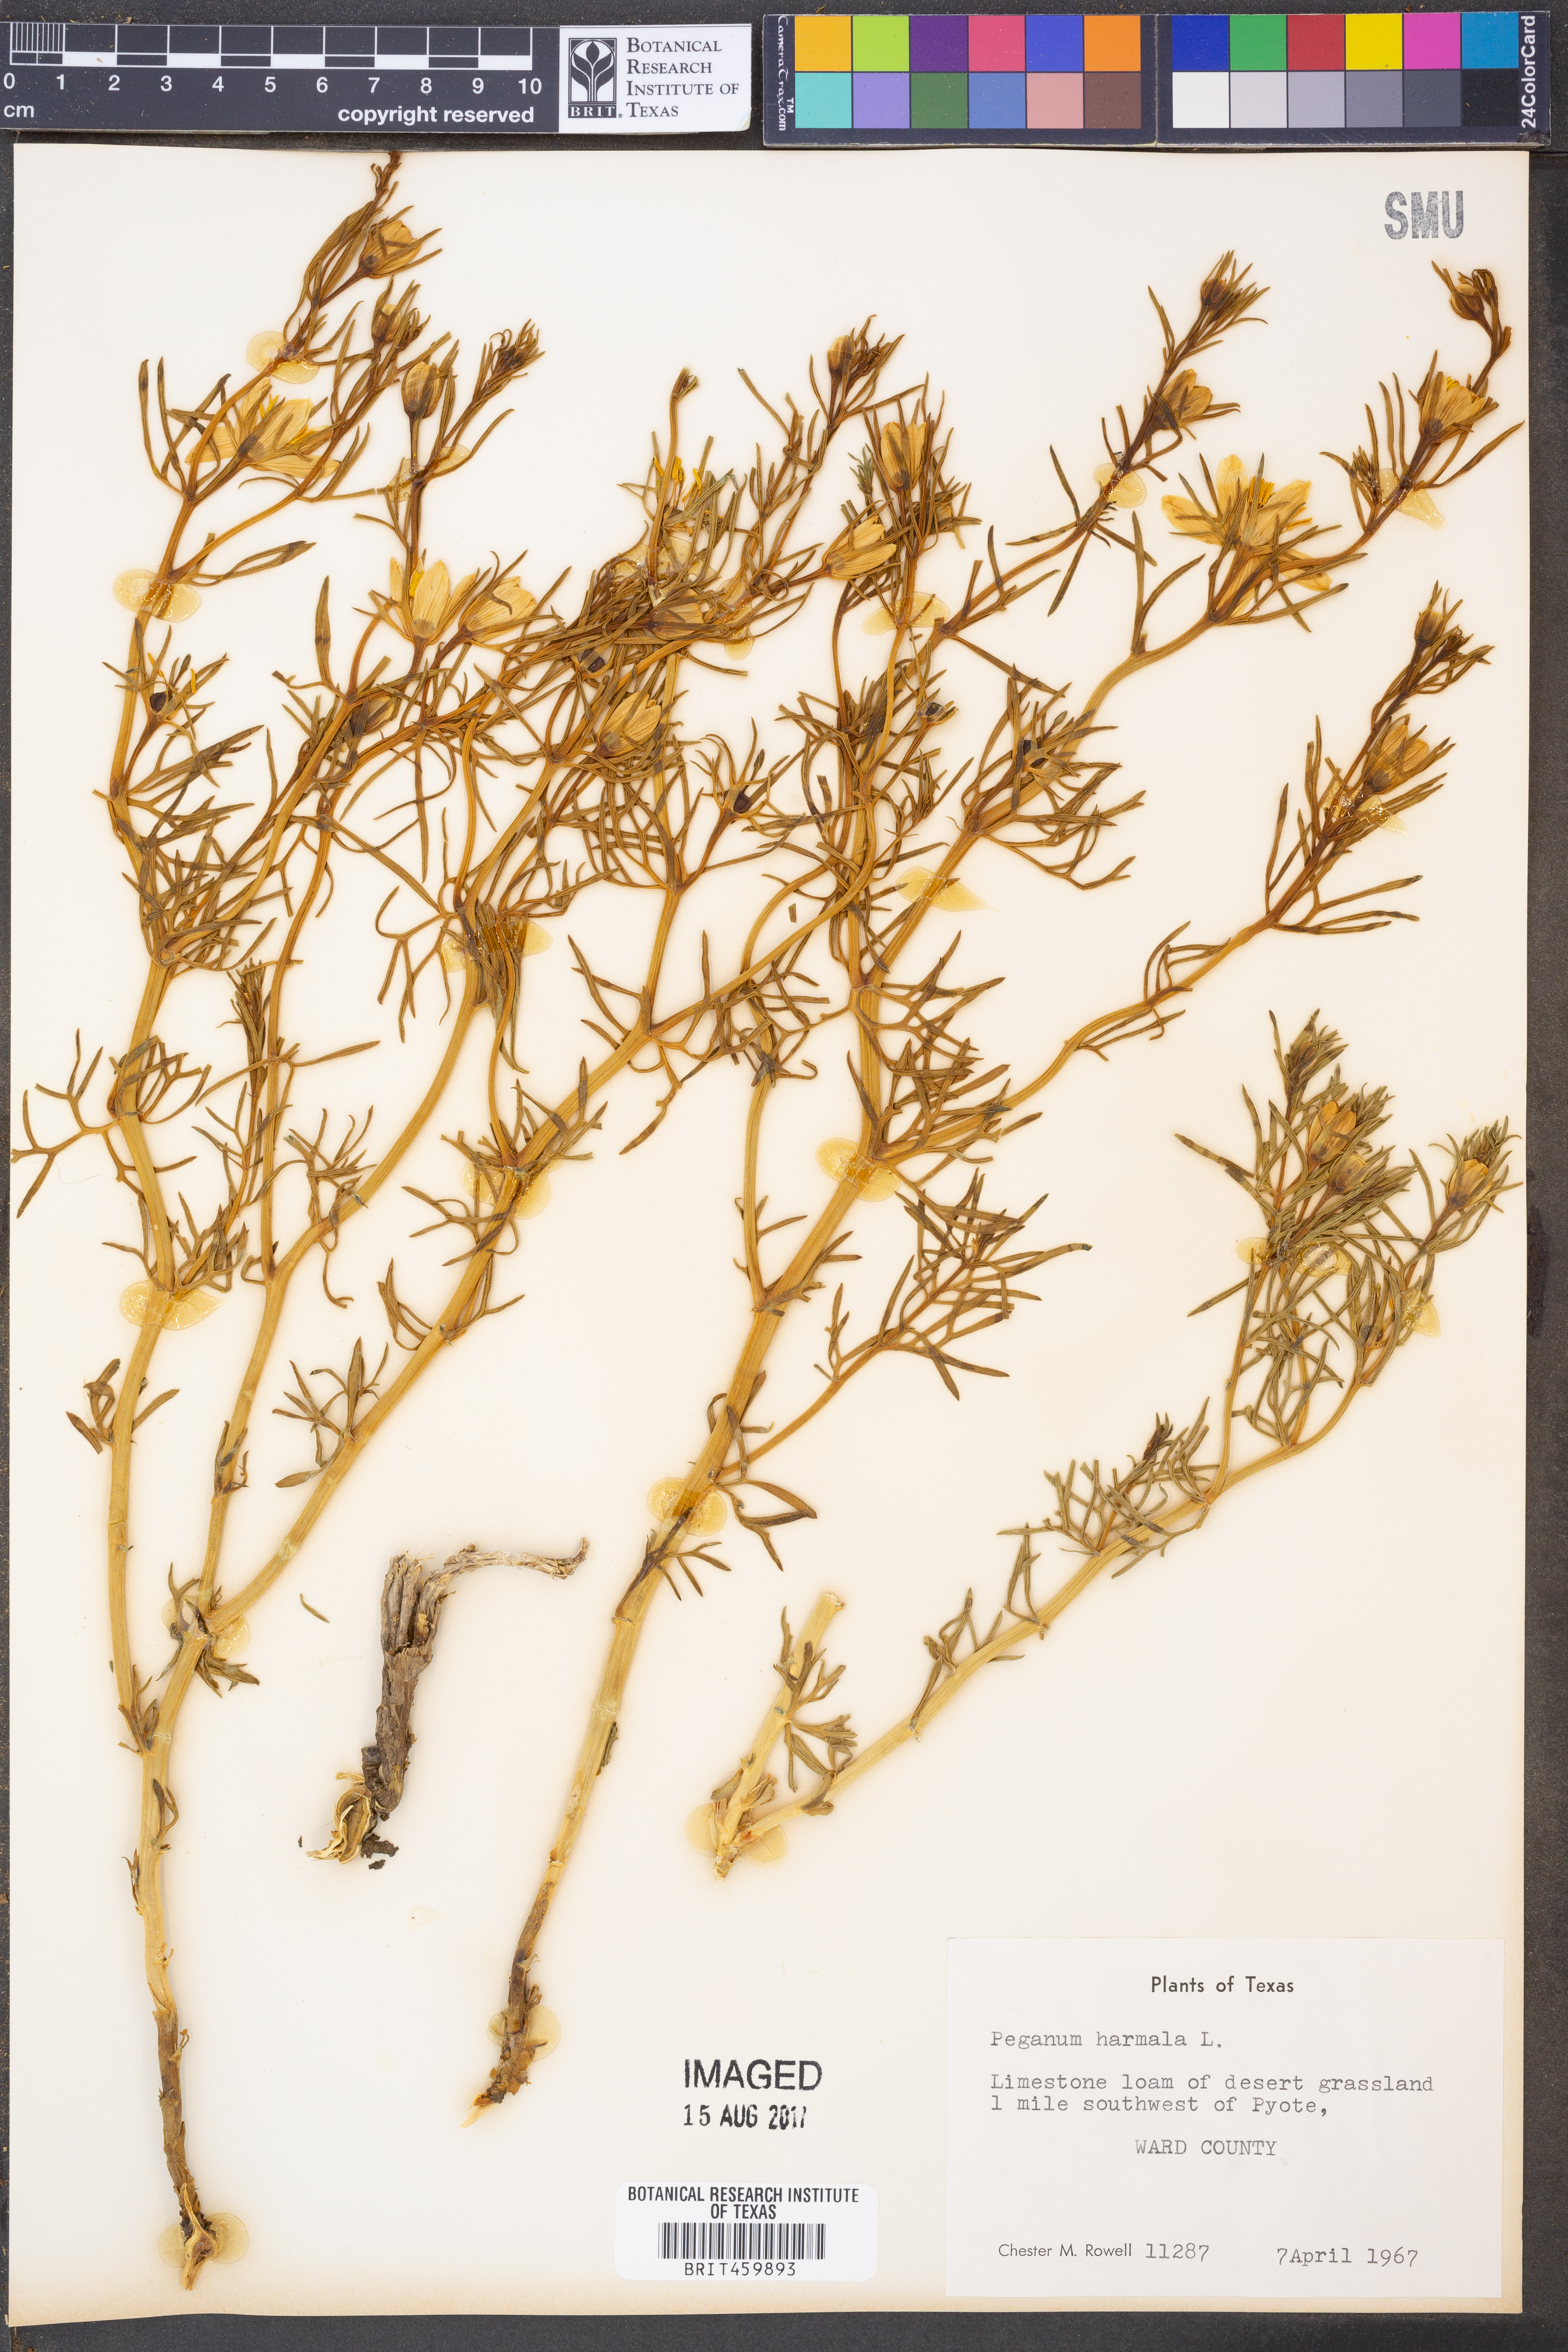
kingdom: Plantae
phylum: Tracheophyta
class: Magnoliopsida
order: Sapindales
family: Tetradiclidaceae
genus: Peganum
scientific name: Peganum harmala
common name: Harmal peganum
